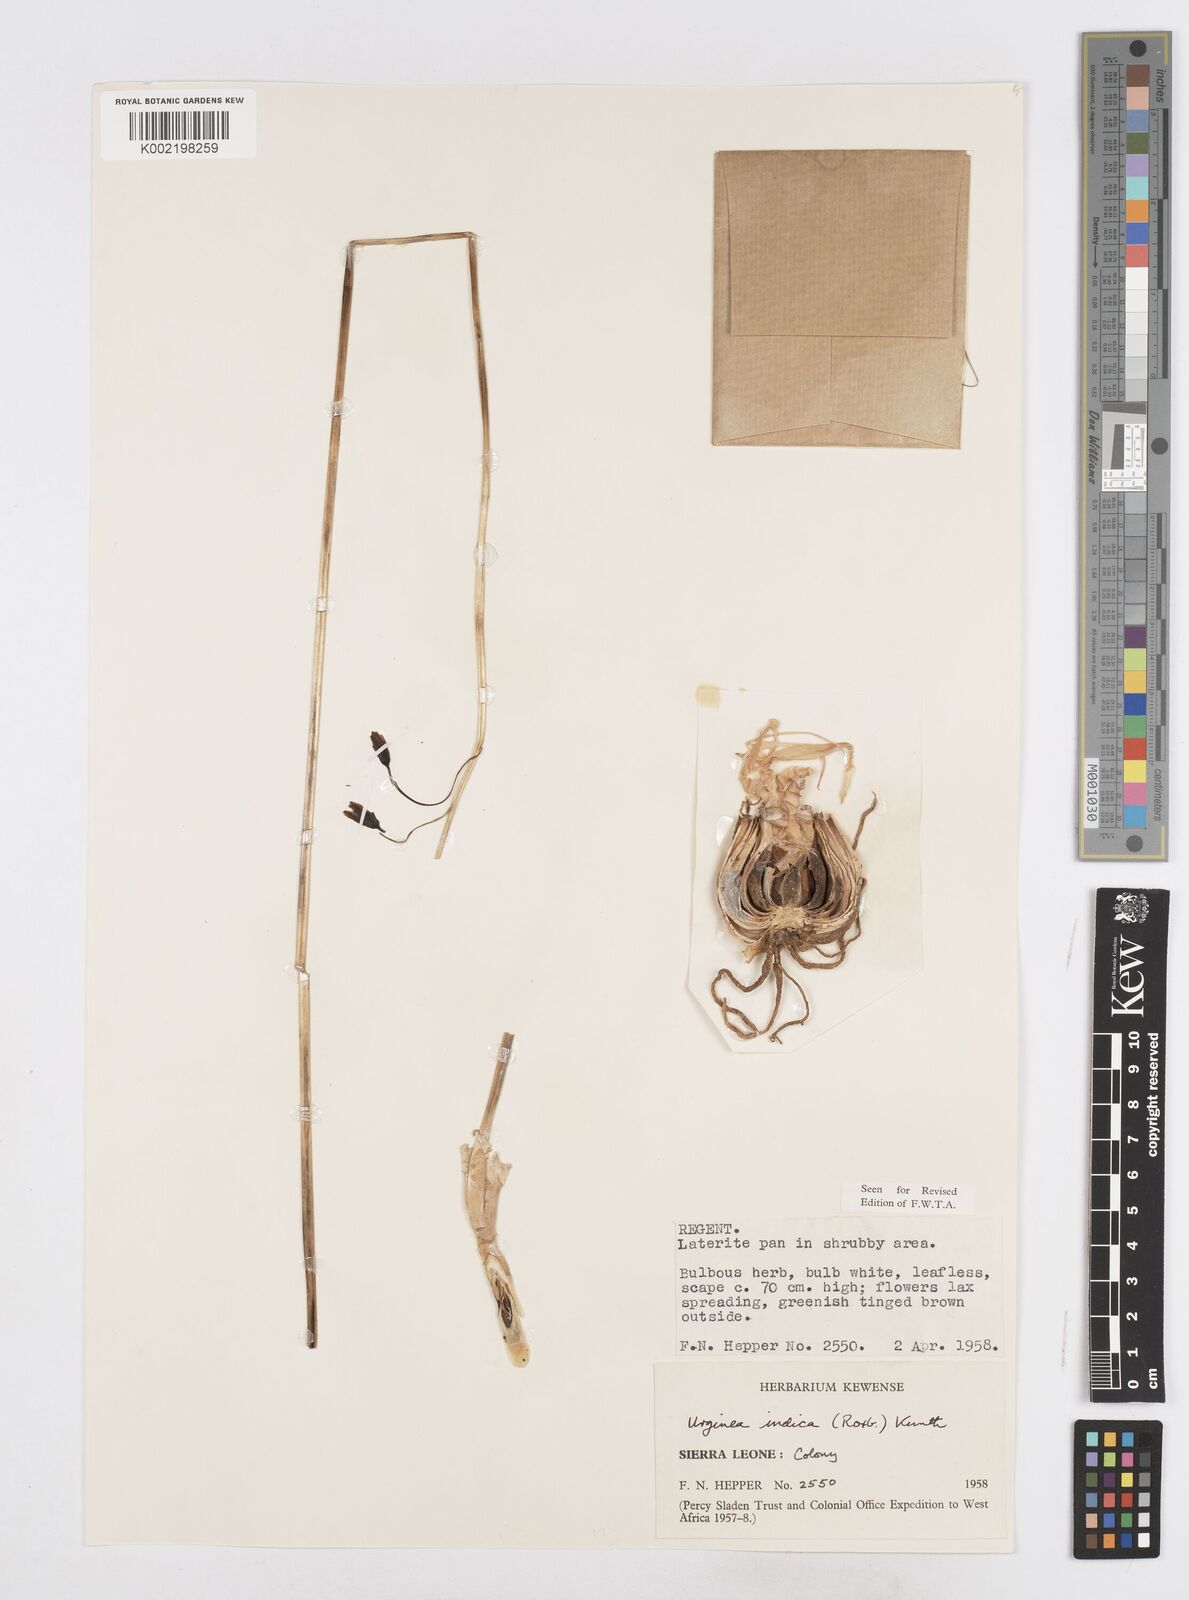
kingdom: Plantae
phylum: Tracheophyta
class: Liliopsida
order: Asparagales
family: Asparagaceae
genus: Drimia
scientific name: Drimia indica
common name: Indian-squill
